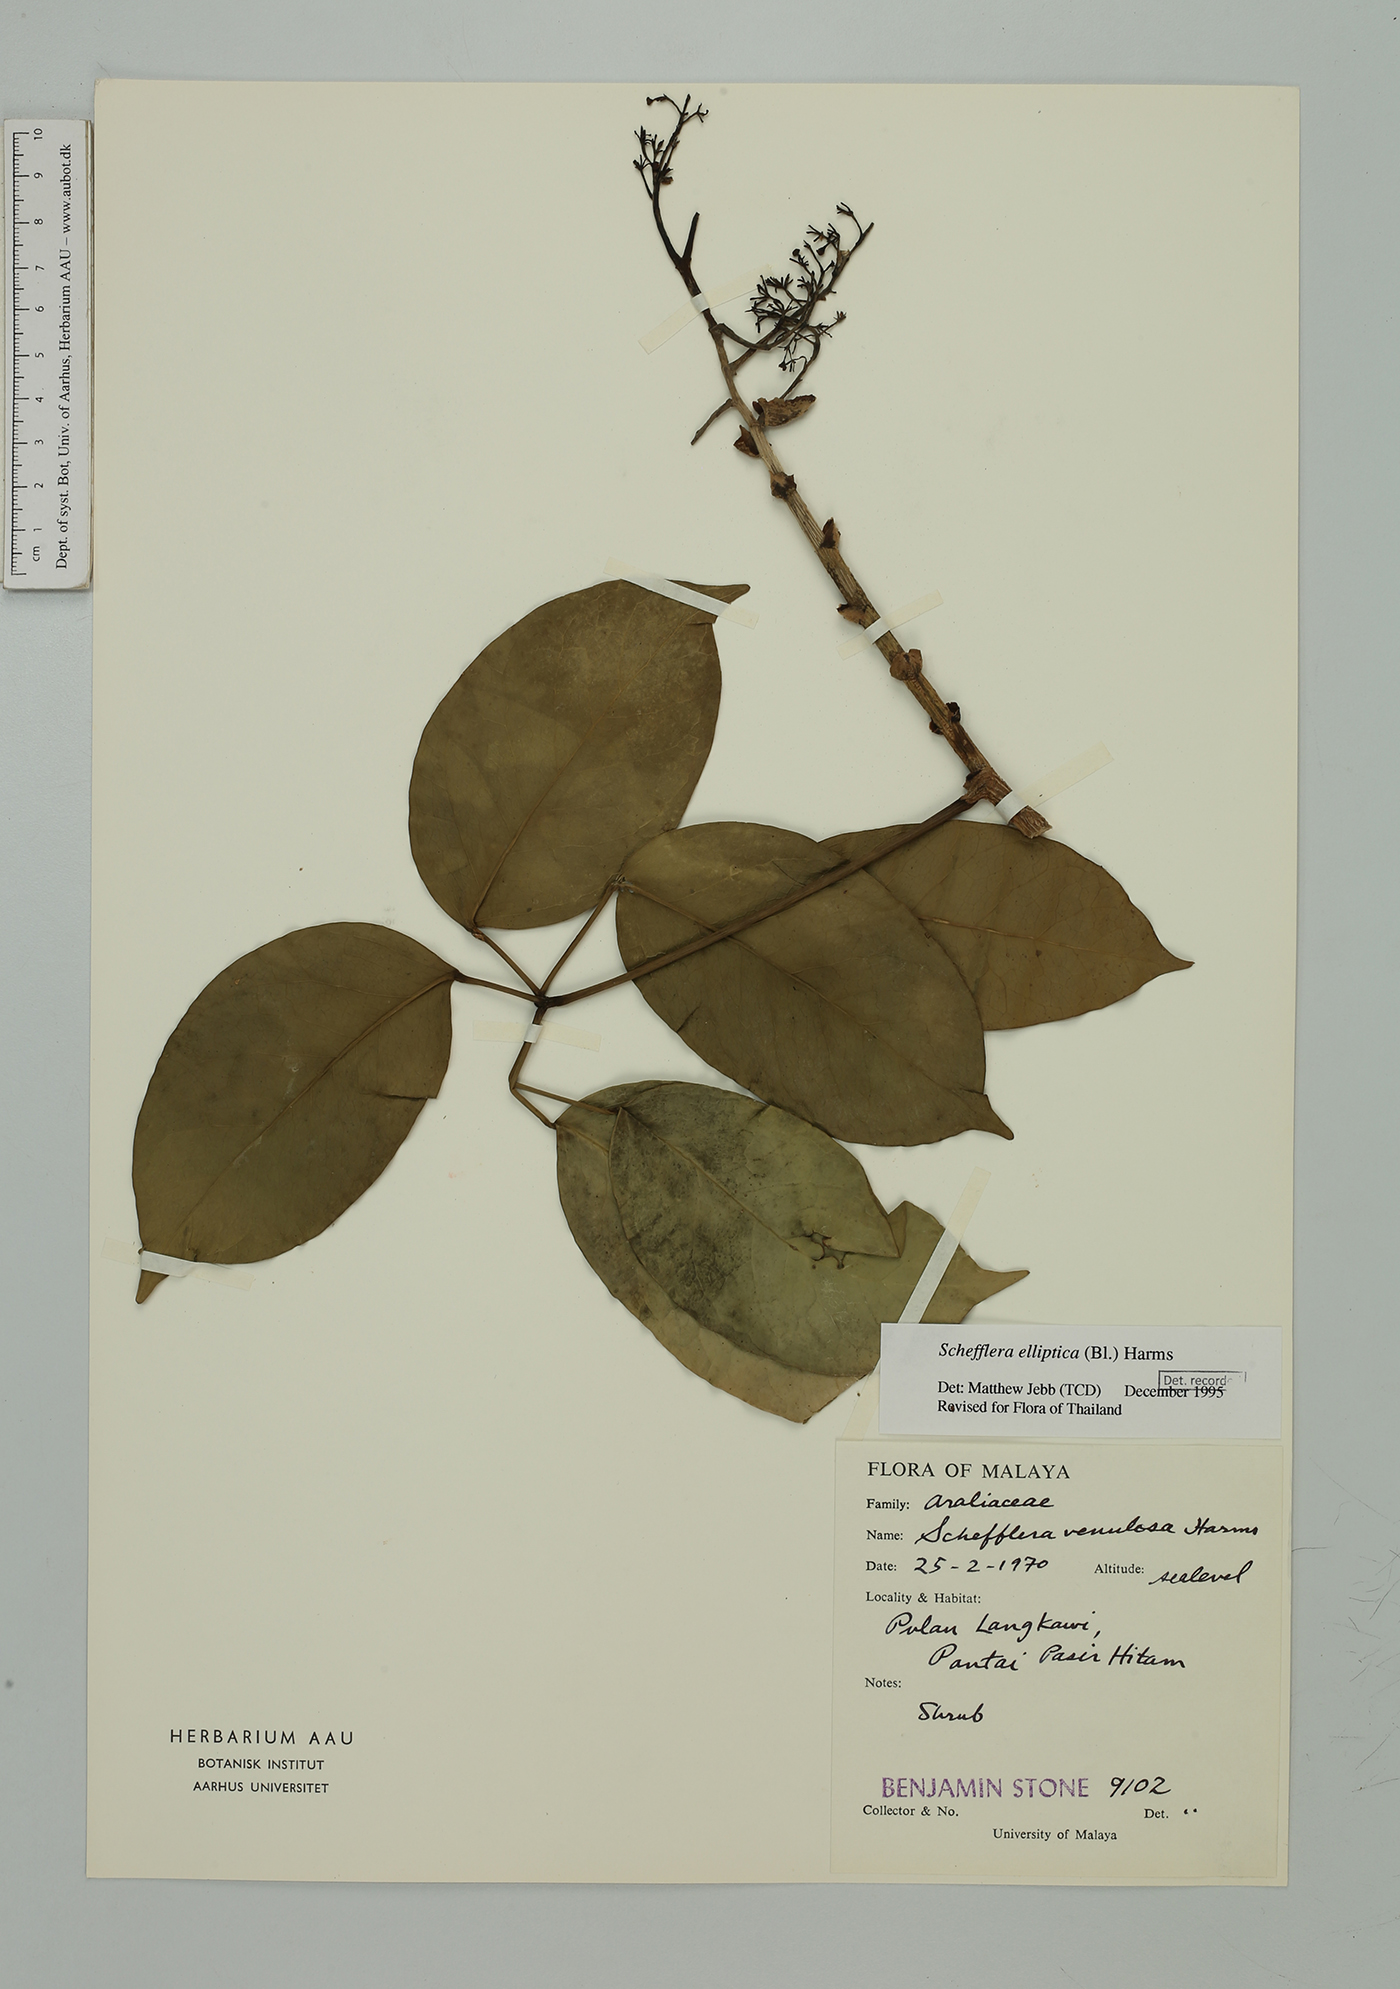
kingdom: Plantae
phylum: Tracheophyta
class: Magnoliopsida
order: Apiales
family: Araliaceae
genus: Heptapleurum
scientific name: Heptapleurum ellipticum
